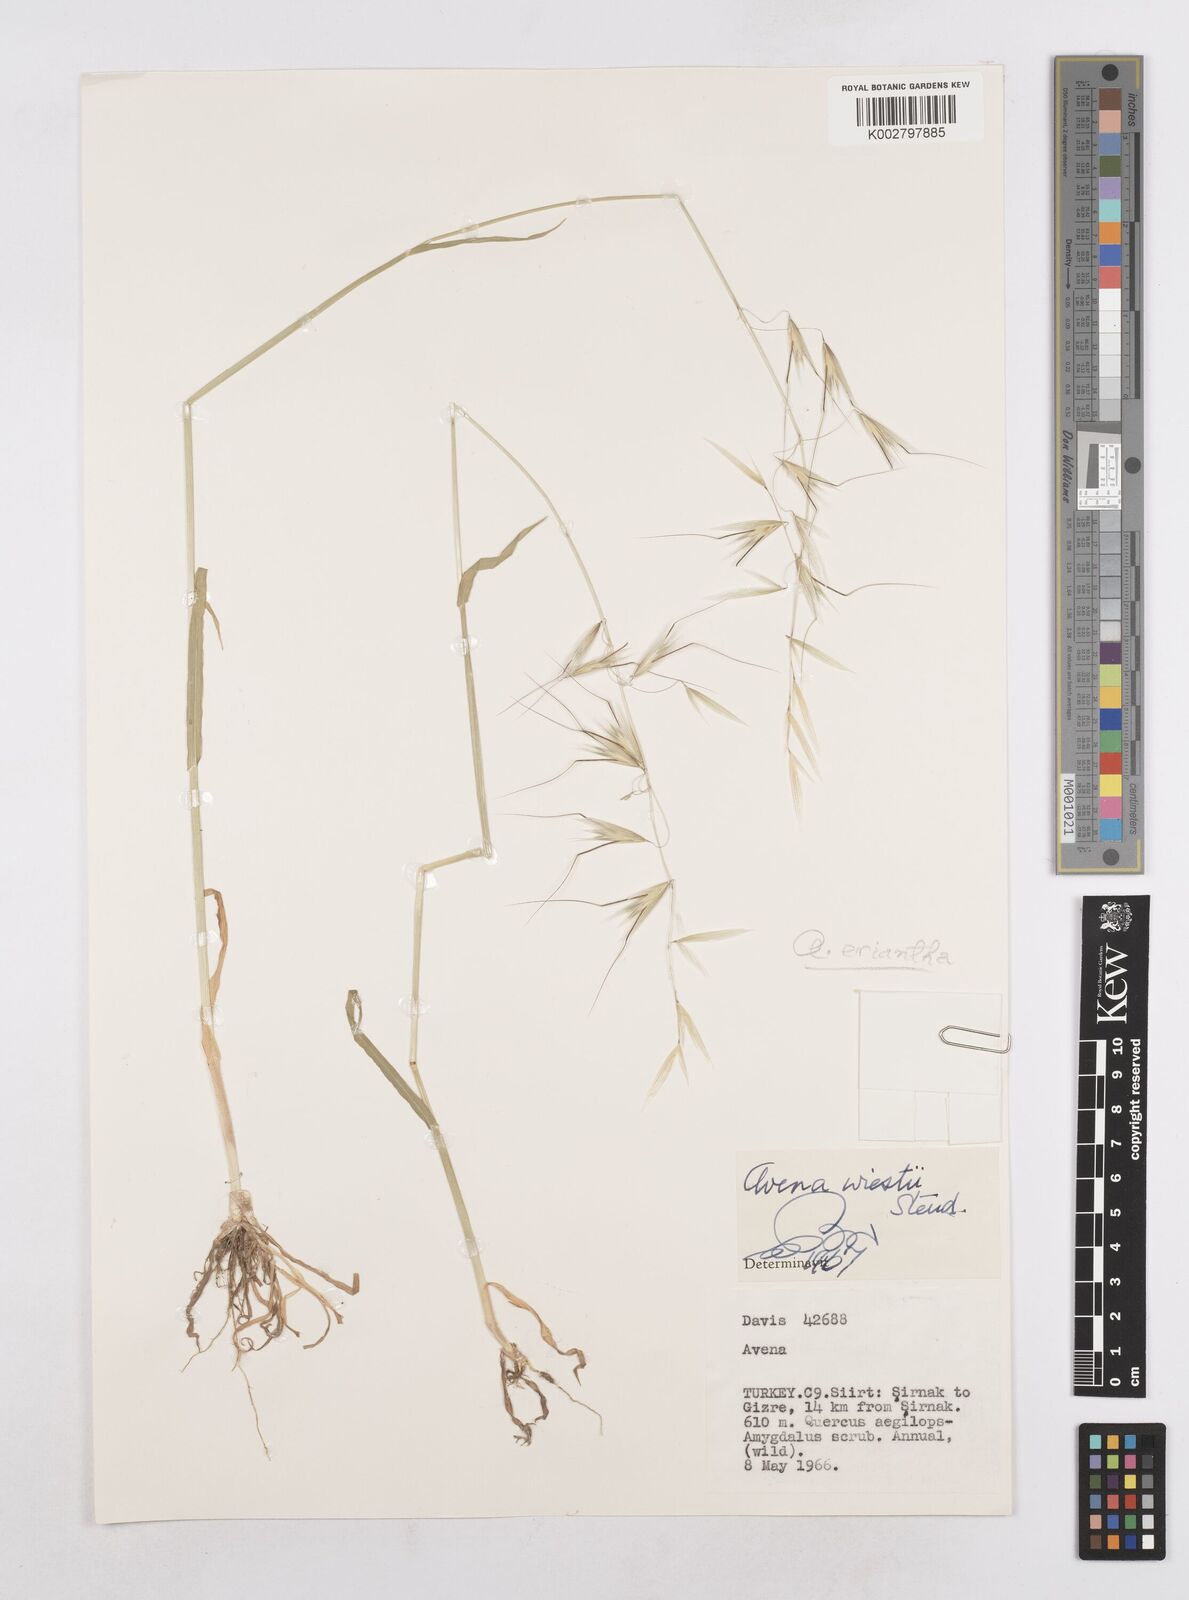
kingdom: Plantae
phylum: Tracheophyta
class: Liliopsida
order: Poales
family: Poaceae
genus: Avena
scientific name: Avena eriantha
